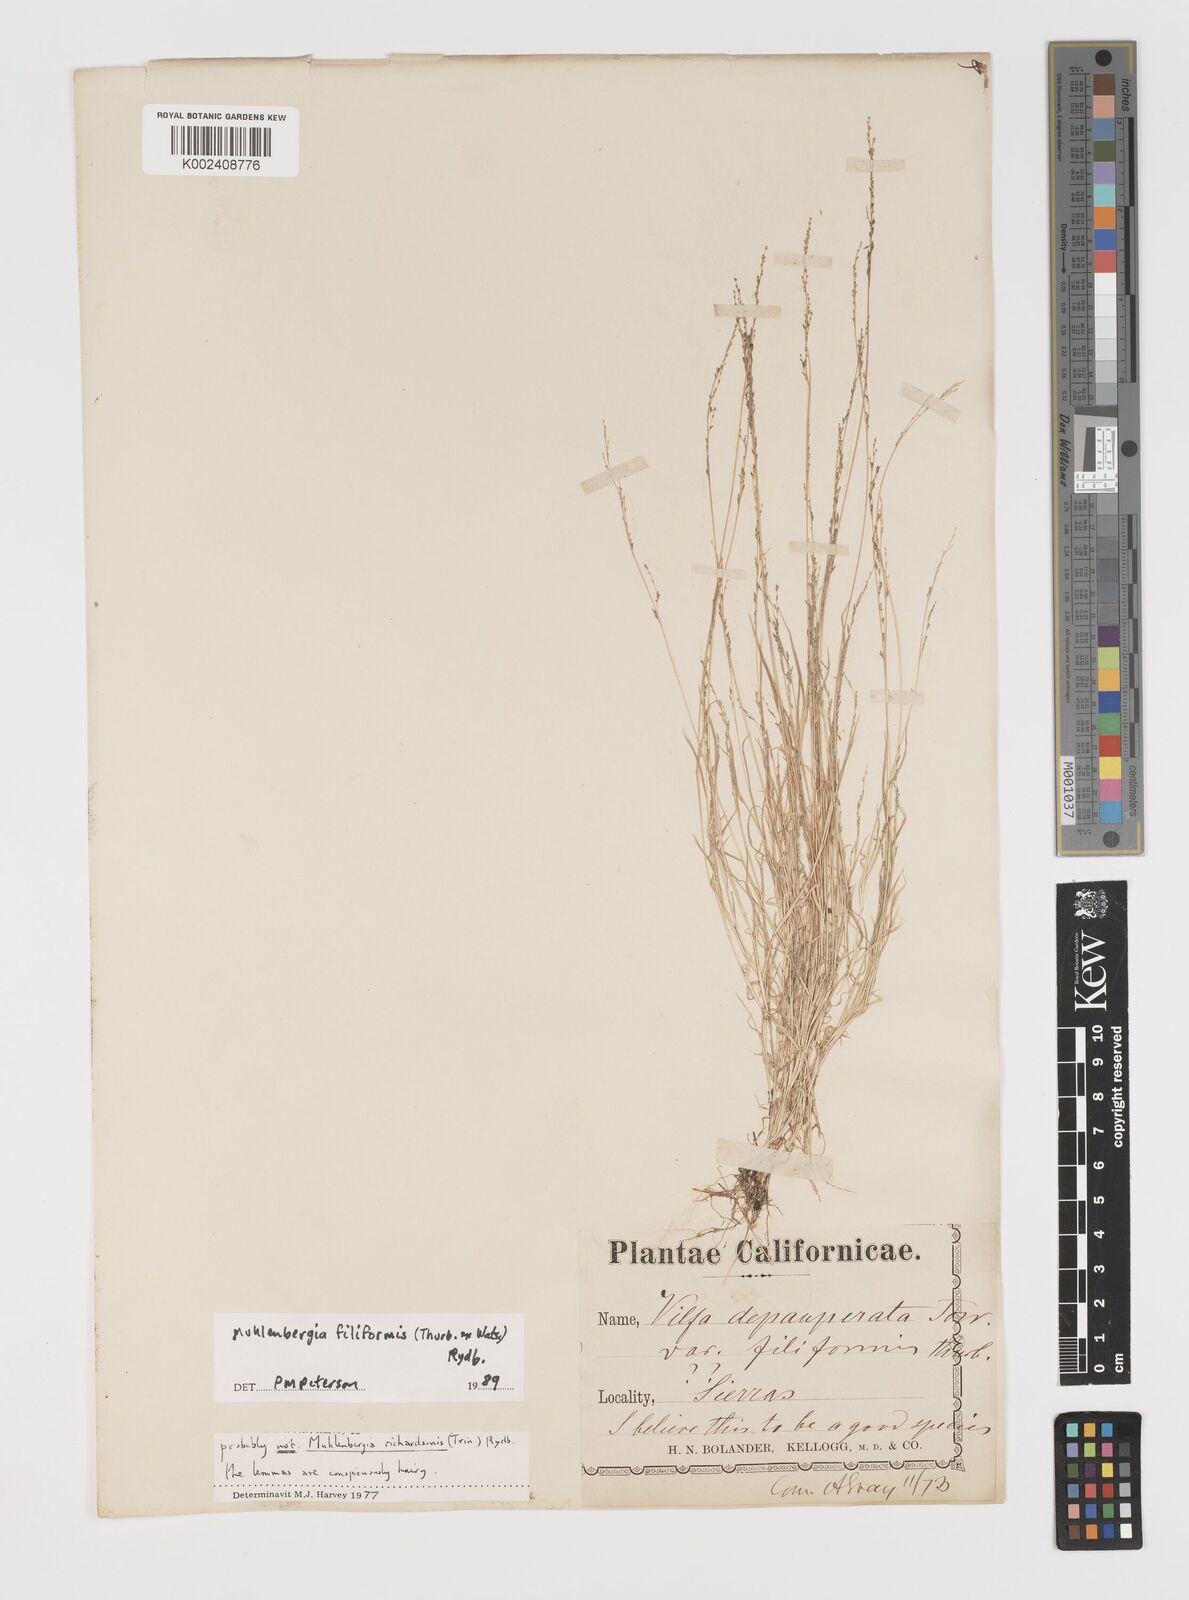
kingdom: Plantae
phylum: Tracheophyta
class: Liliopsida
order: Poales
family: Poaceae
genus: Leptochloa
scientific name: Leptochloa mucronata
